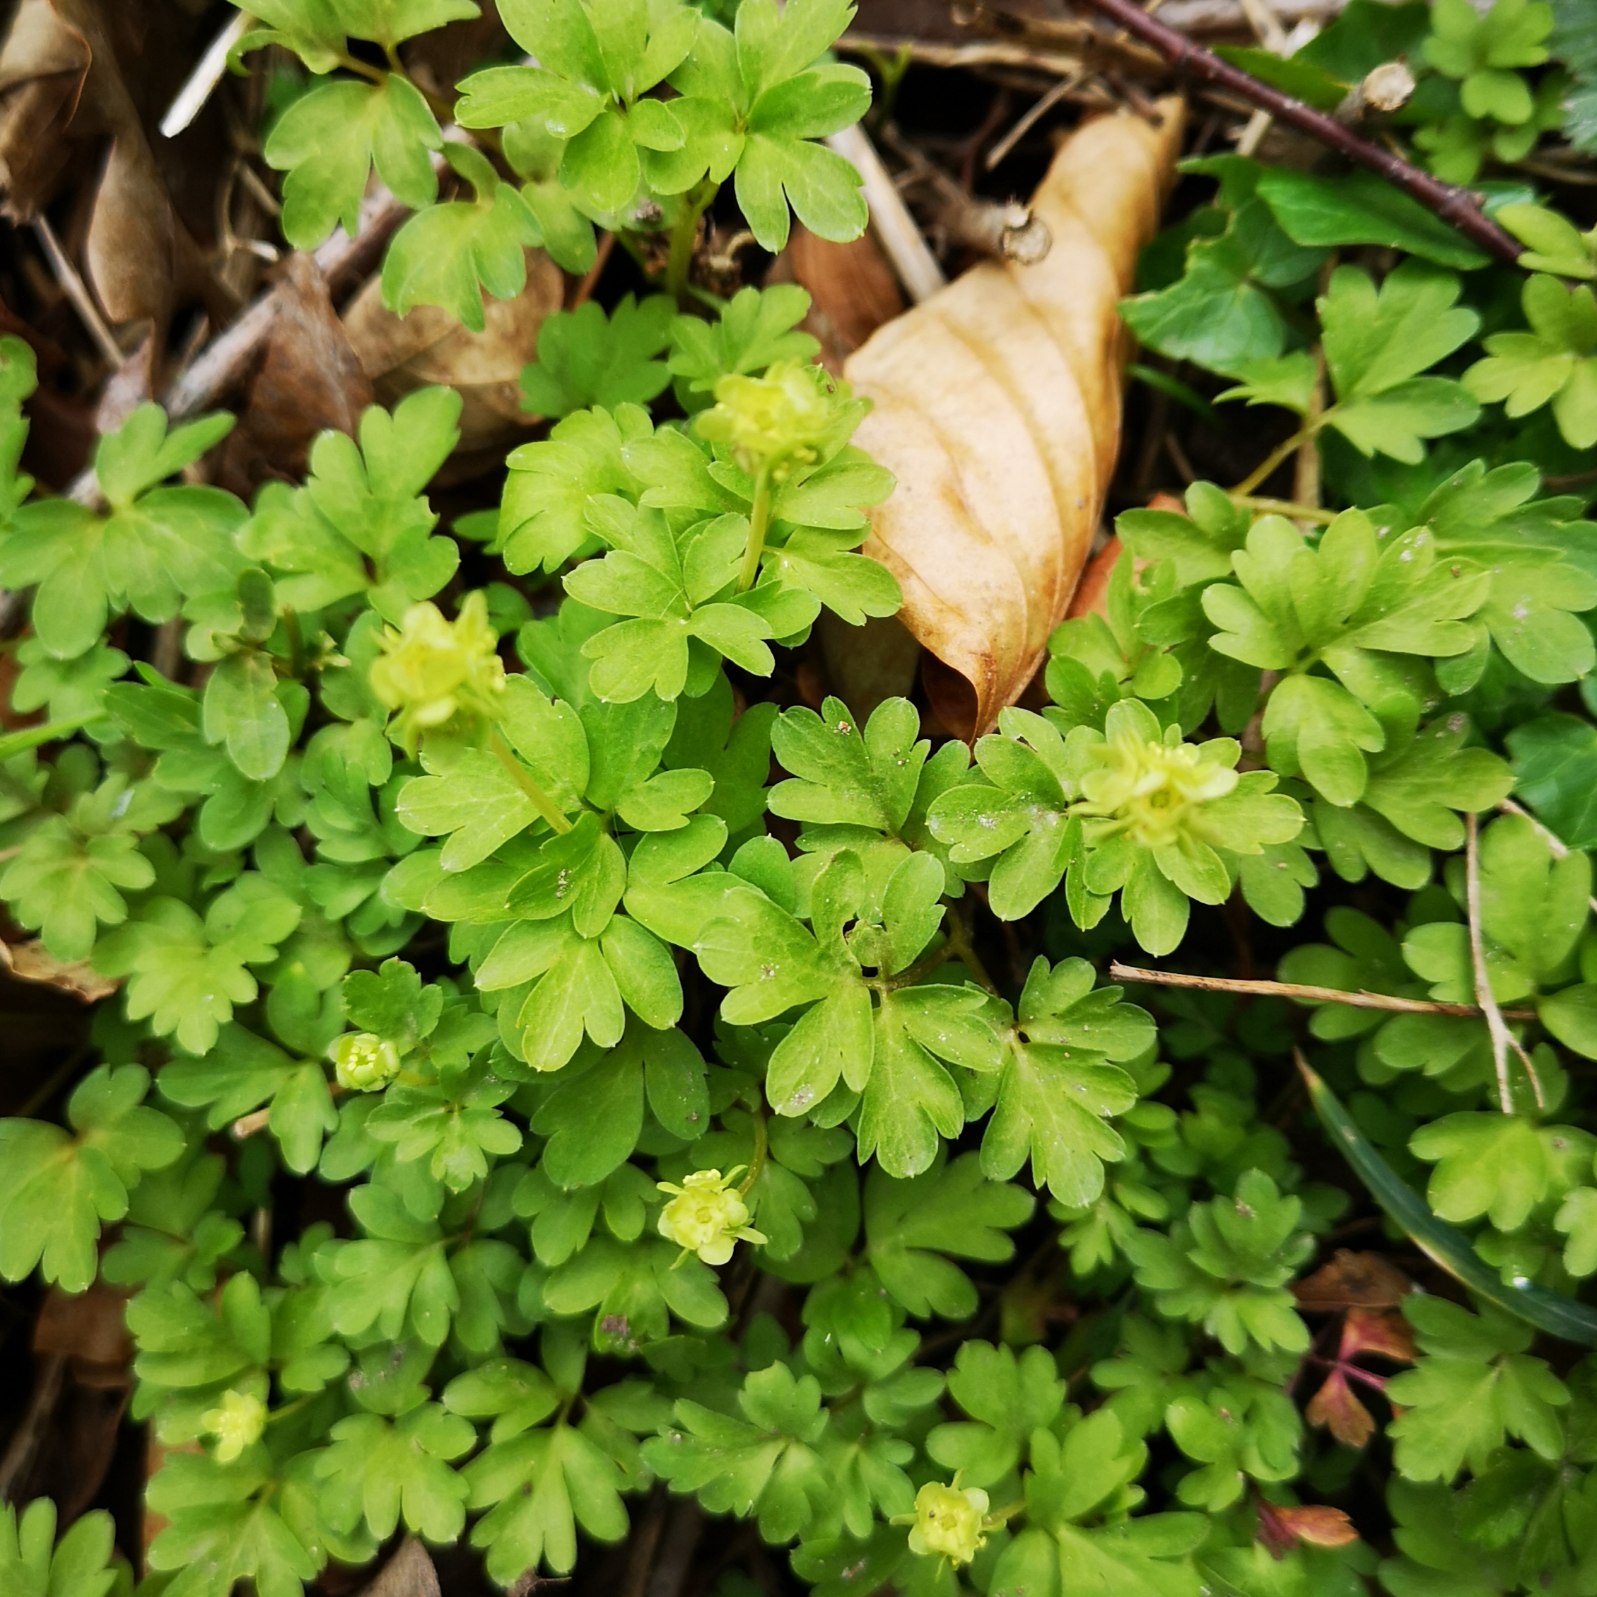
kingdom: Plantae
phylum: Tracheophyta
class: Magnoliopsida
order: Dipsacales
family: Viburnaceae
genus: Adoxa
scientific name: Adoxa moschatellina
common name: Desmerurt
